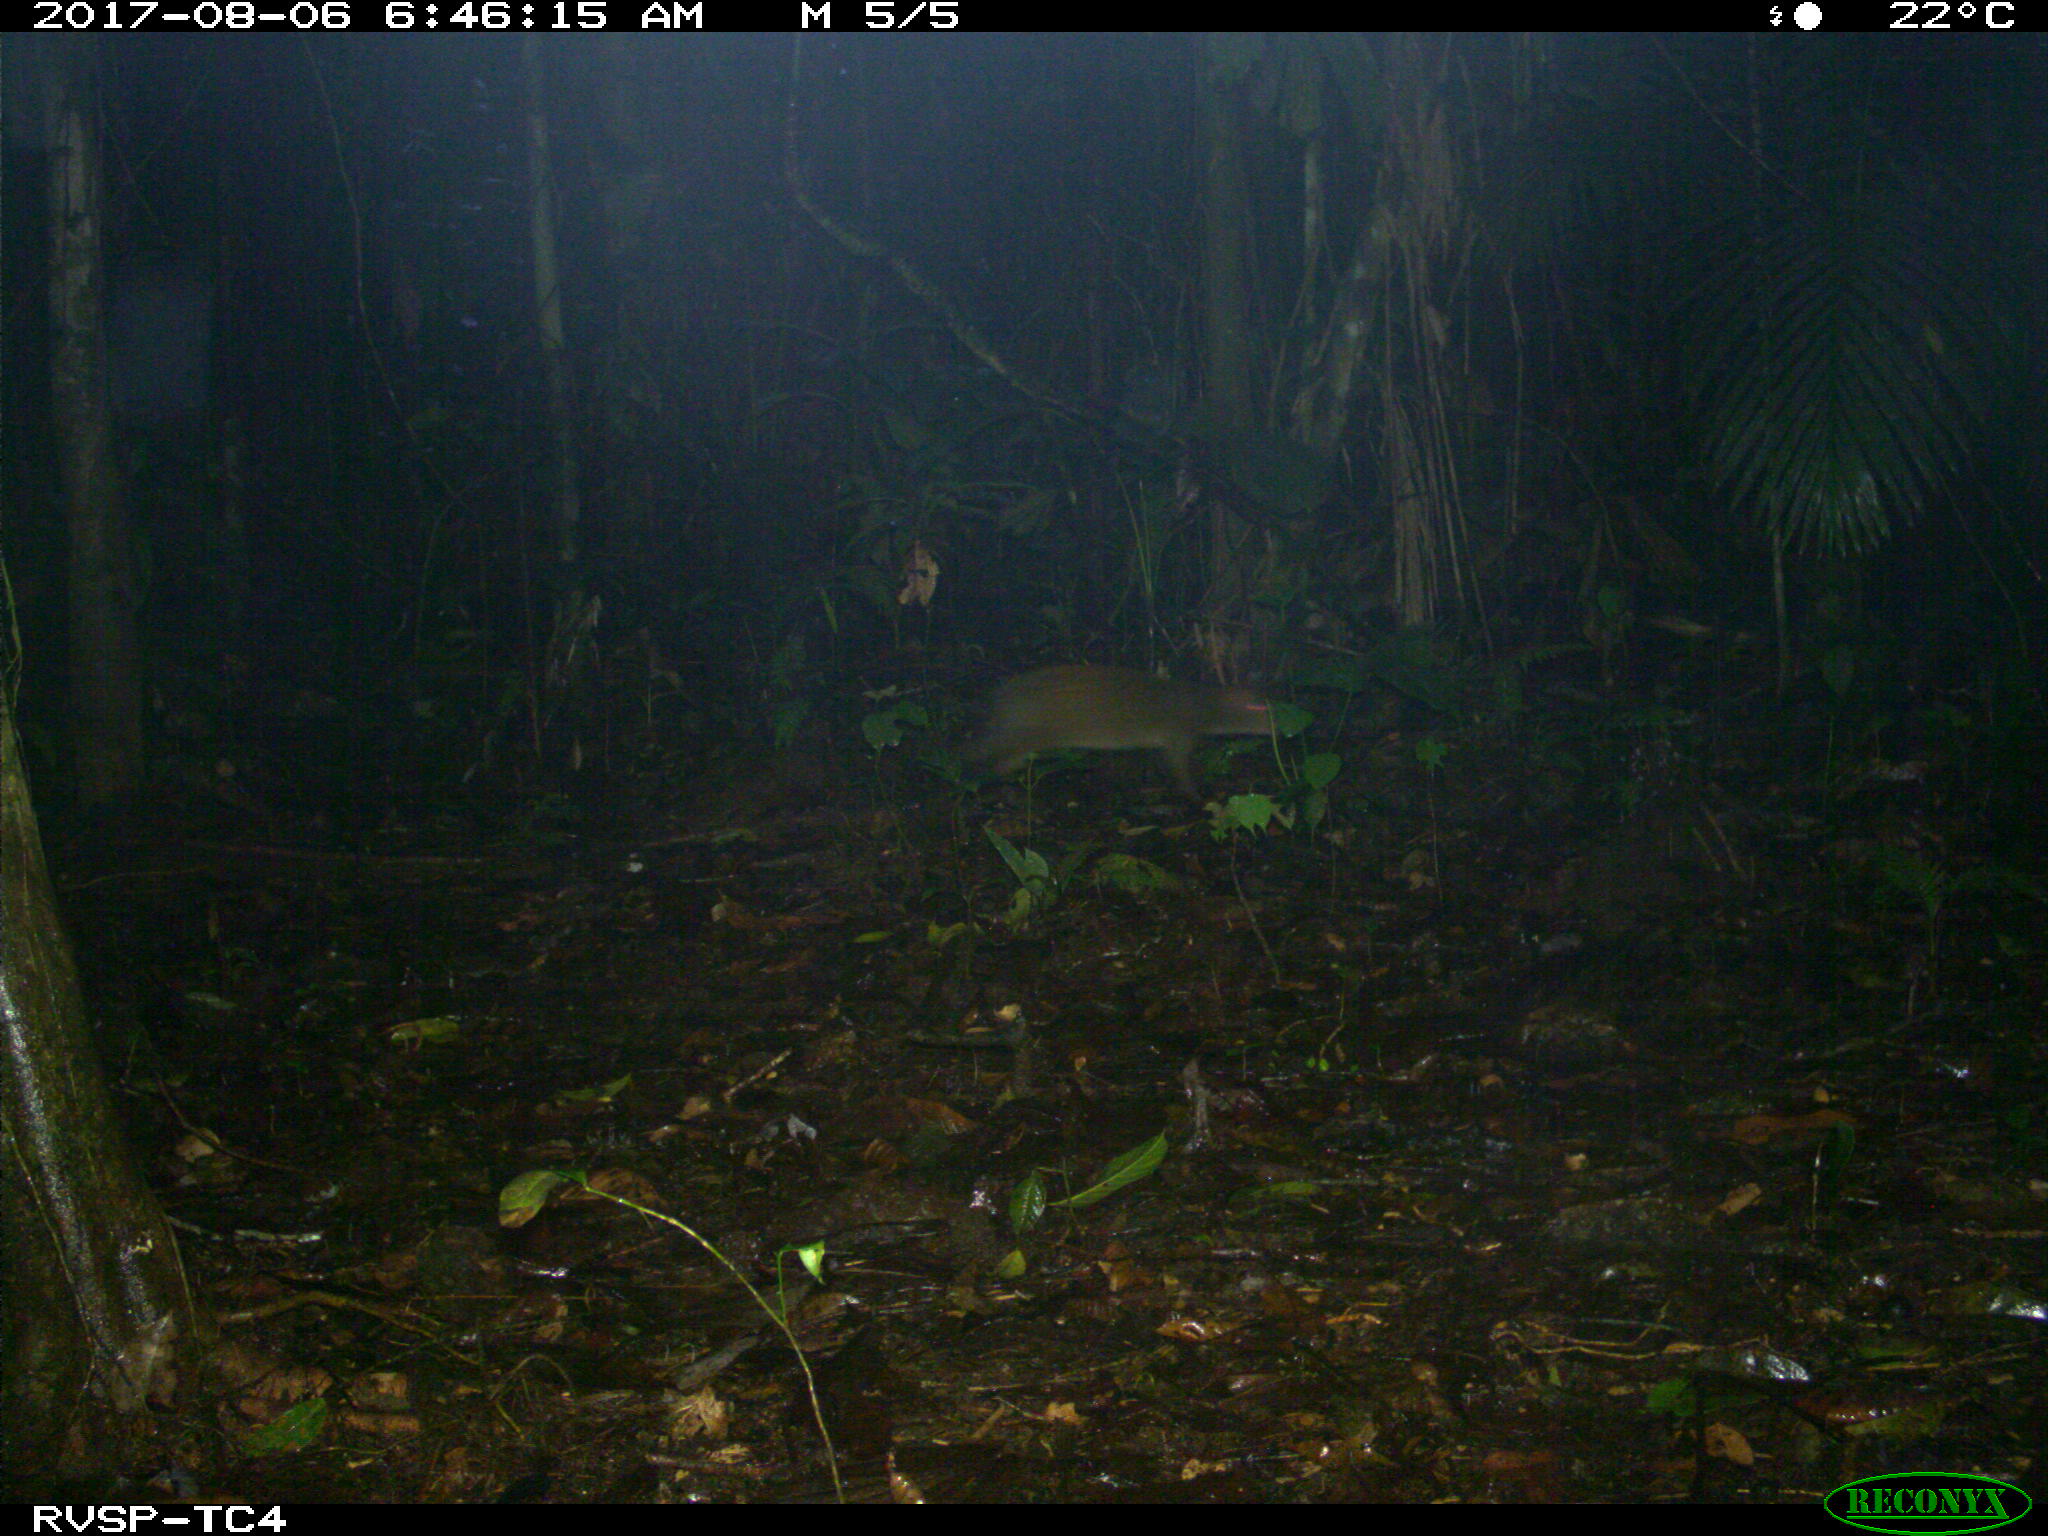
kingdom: Animalia
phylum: Chordata
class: Mammalia
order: Rodentia
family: Dasyproctidae
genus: Dasyprocta
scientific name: Dasyprocta punctata
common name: Central american agouti
